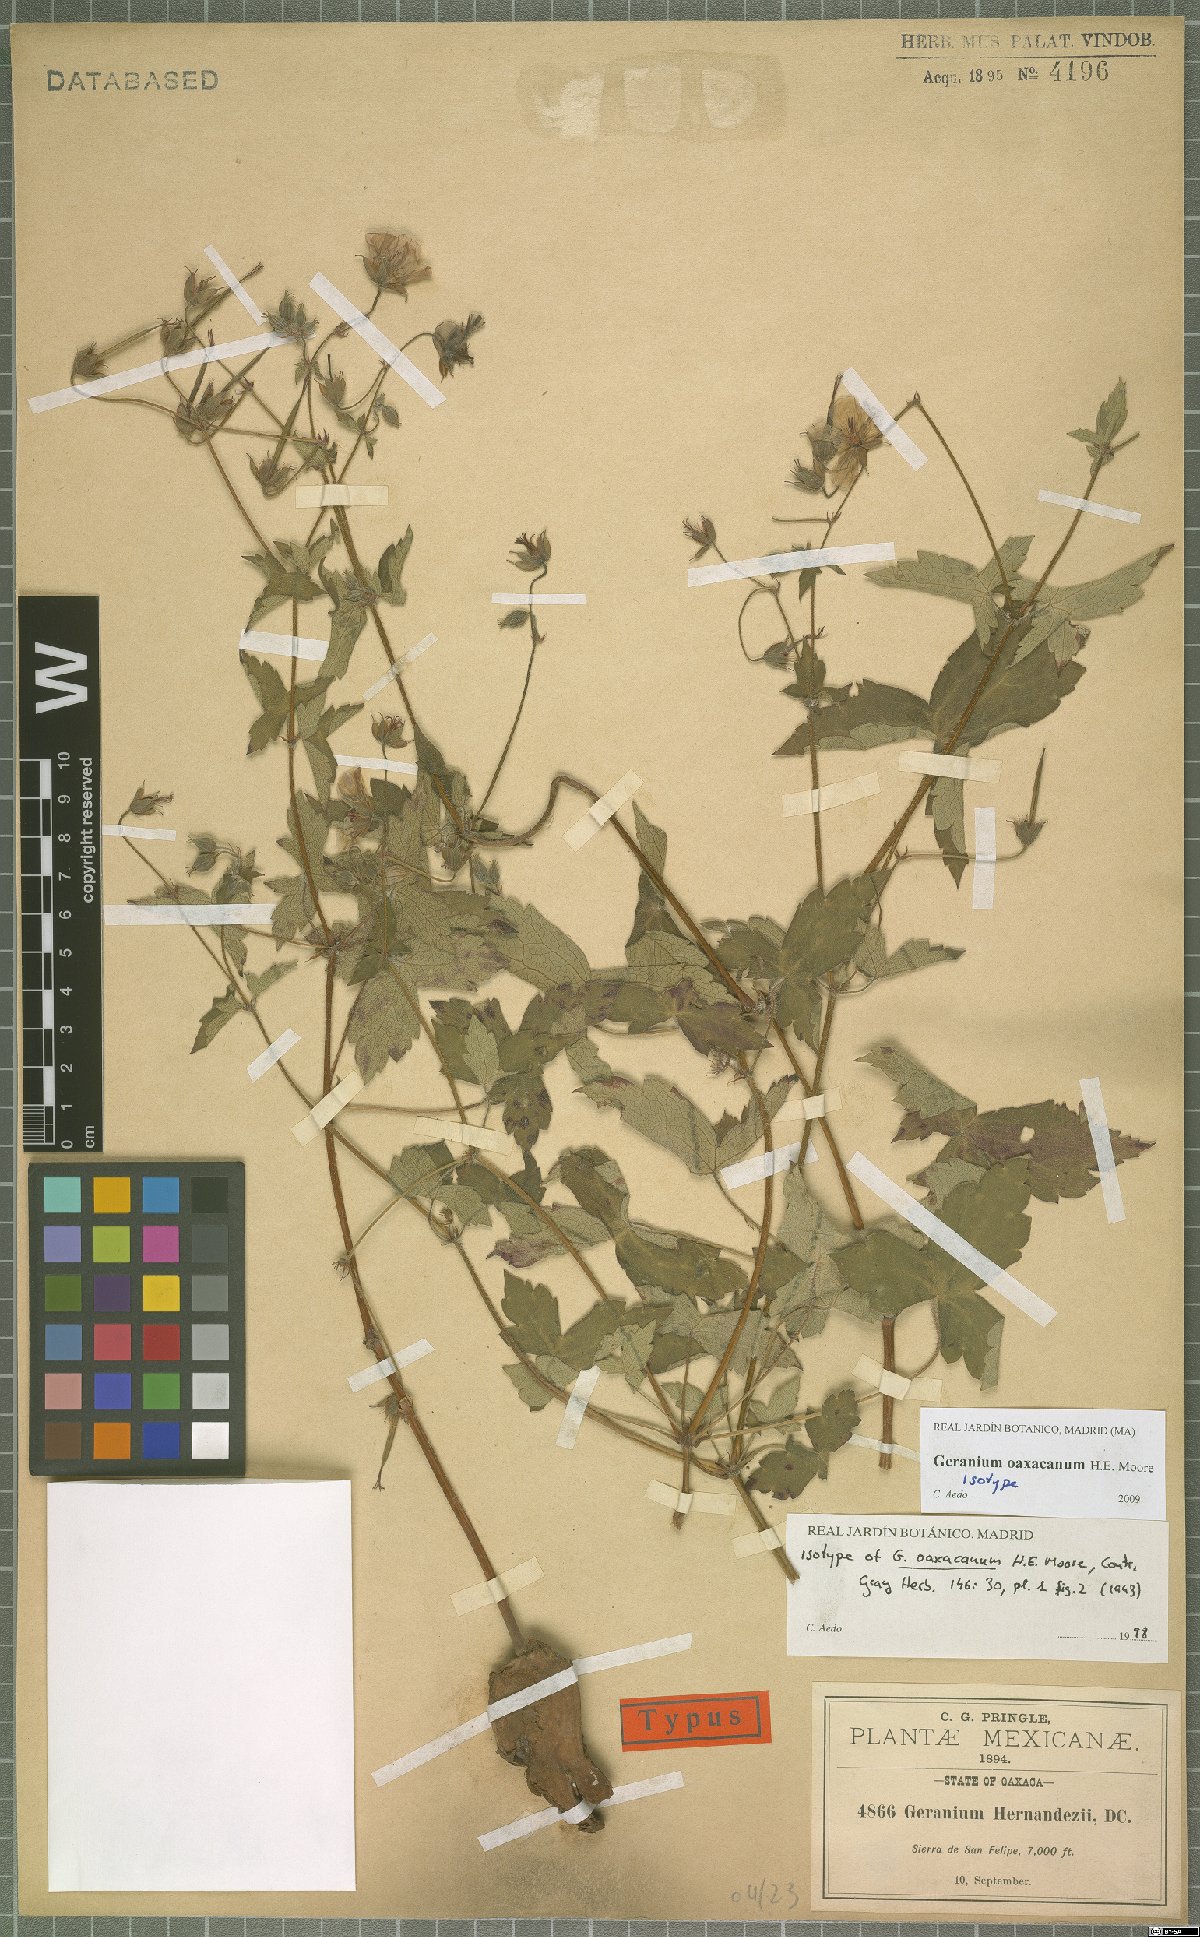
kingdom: Plantae
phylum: Tracheophyta
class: Magnoliopsida
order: Geraniales
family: Geraniaceae
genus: Geranium
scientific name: Geranium oaxacanum
